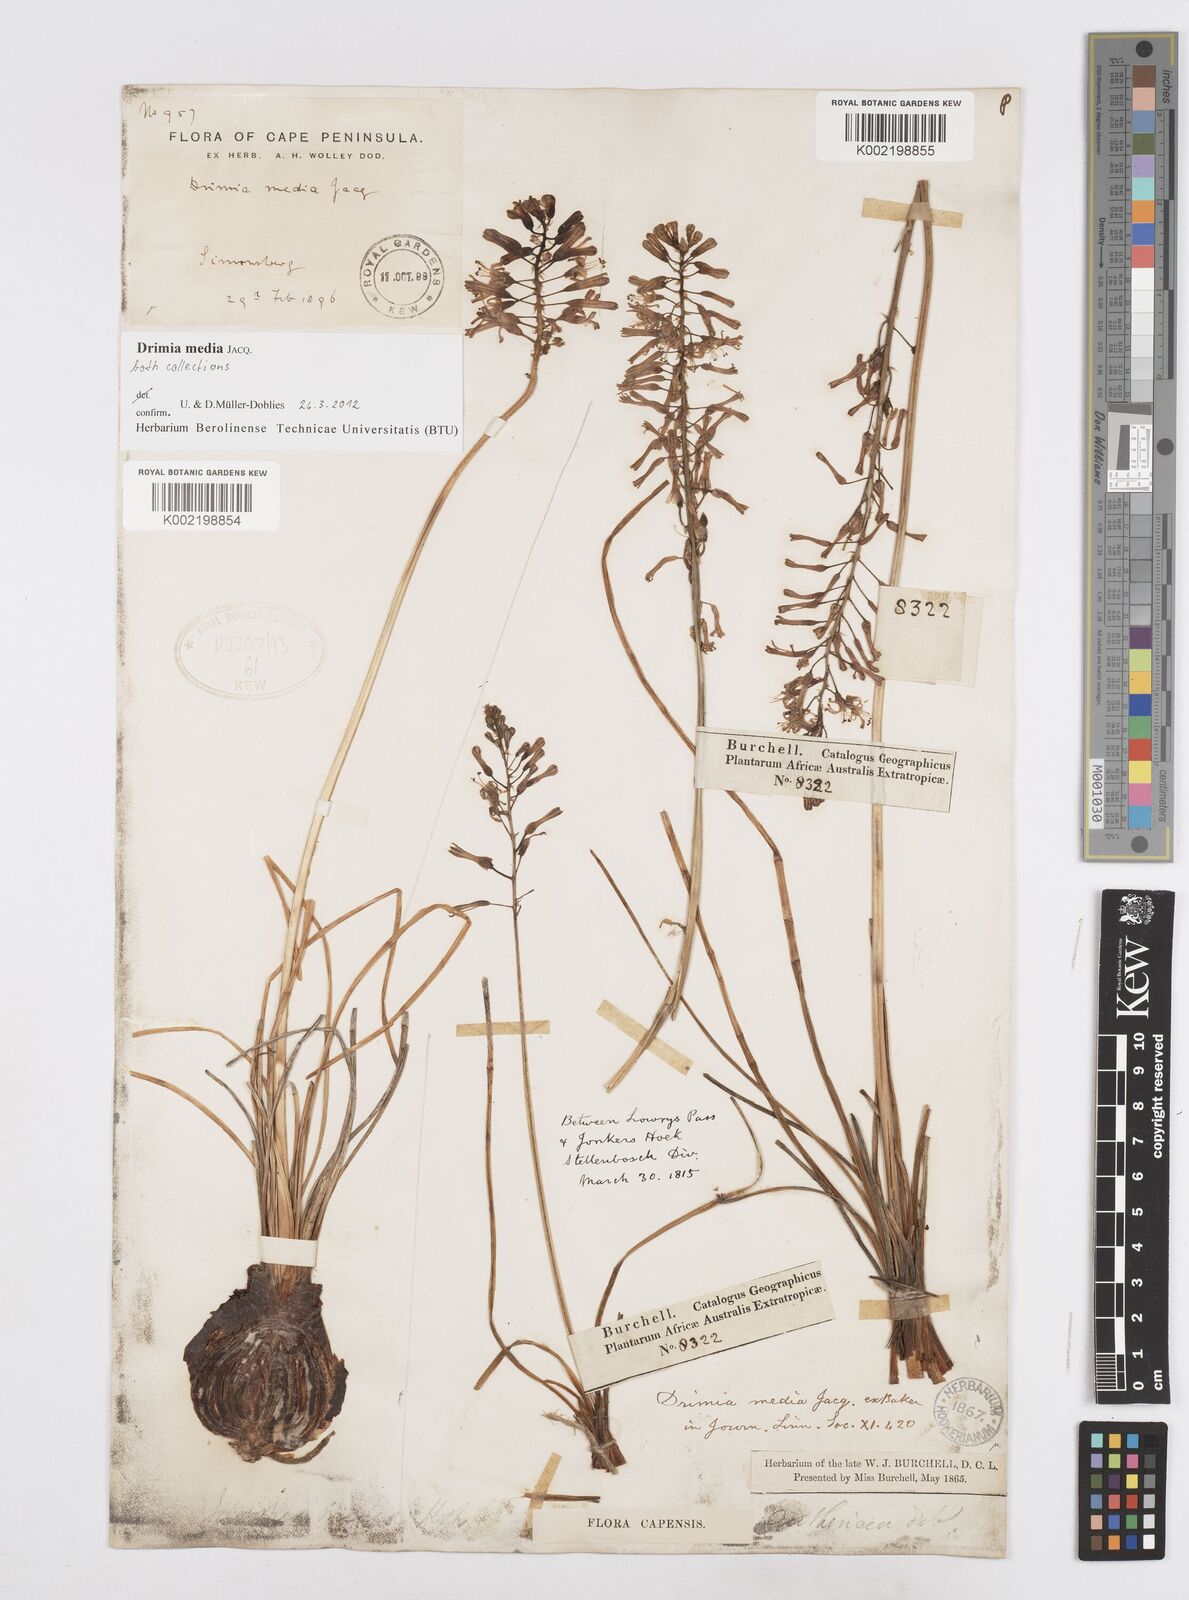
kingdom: Plantae
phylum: Tracheophyta
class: Liliopsida
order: Asparagales
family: Asparagaceae
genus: Drimia
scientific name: Drimia media
